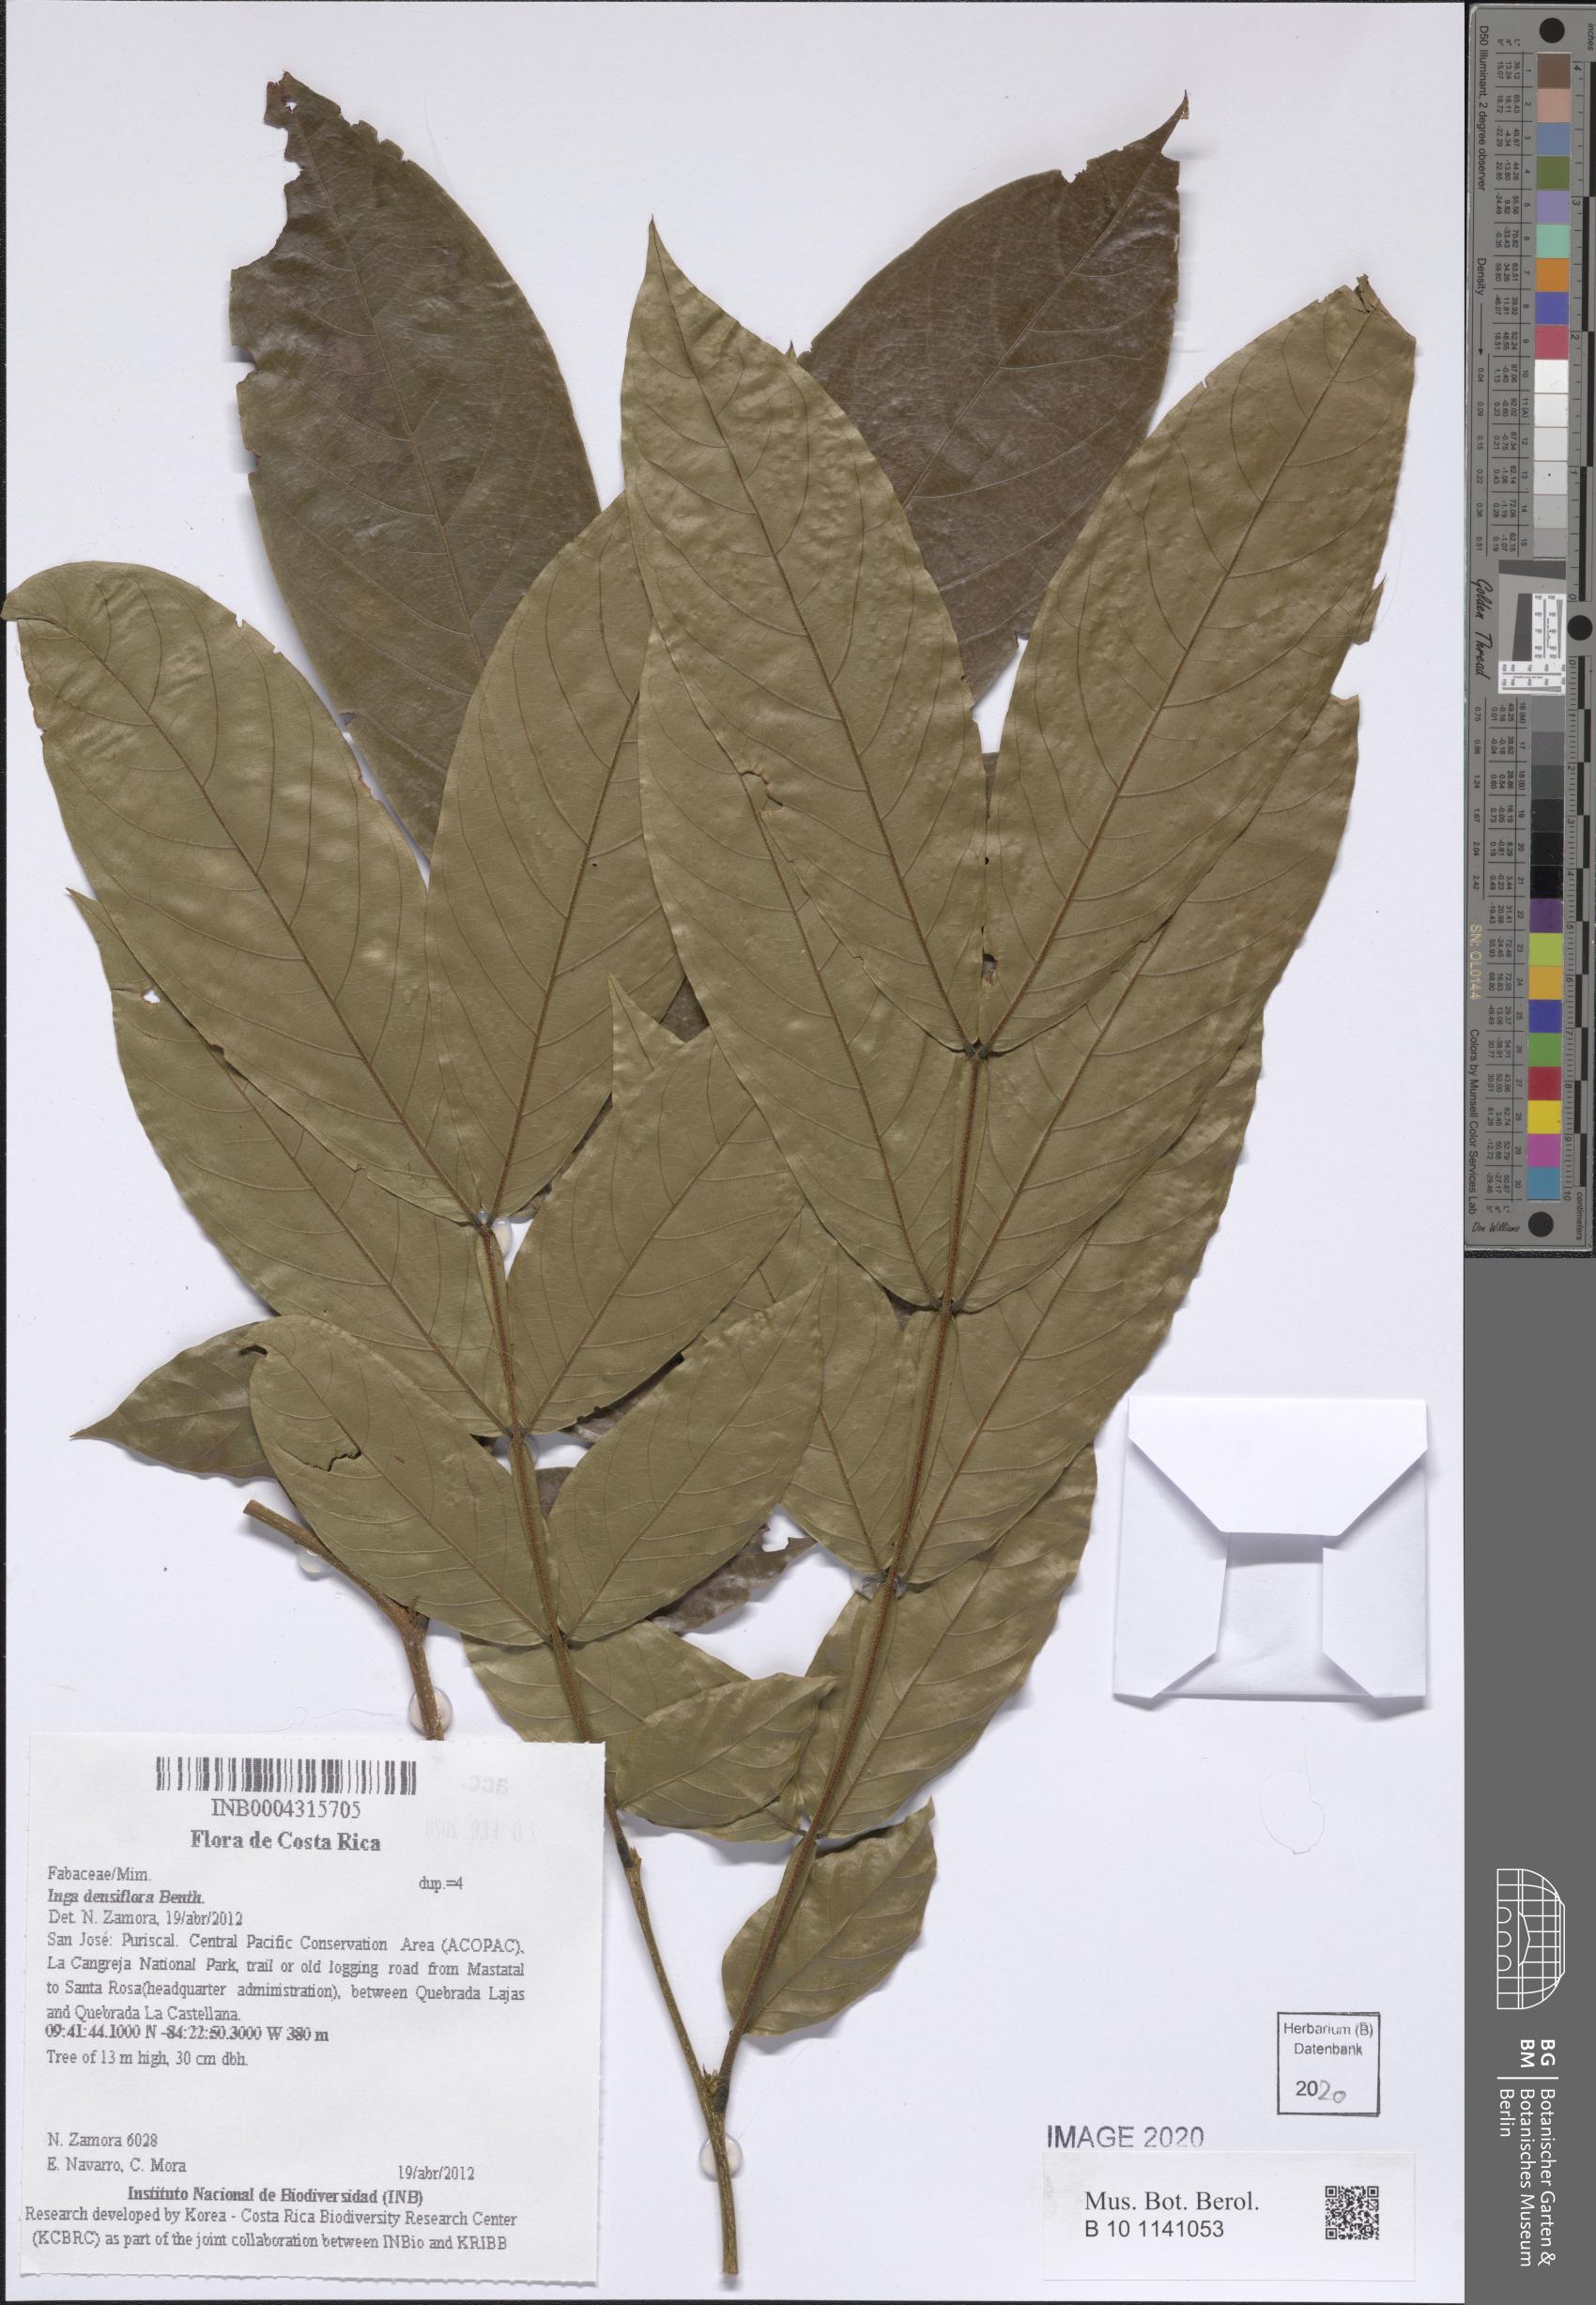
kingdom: Plantae
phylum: Tracheophyta
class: Magnoliopsida
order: Fabales
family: Fabaceae
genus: Inga
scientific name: Inga densiflora
